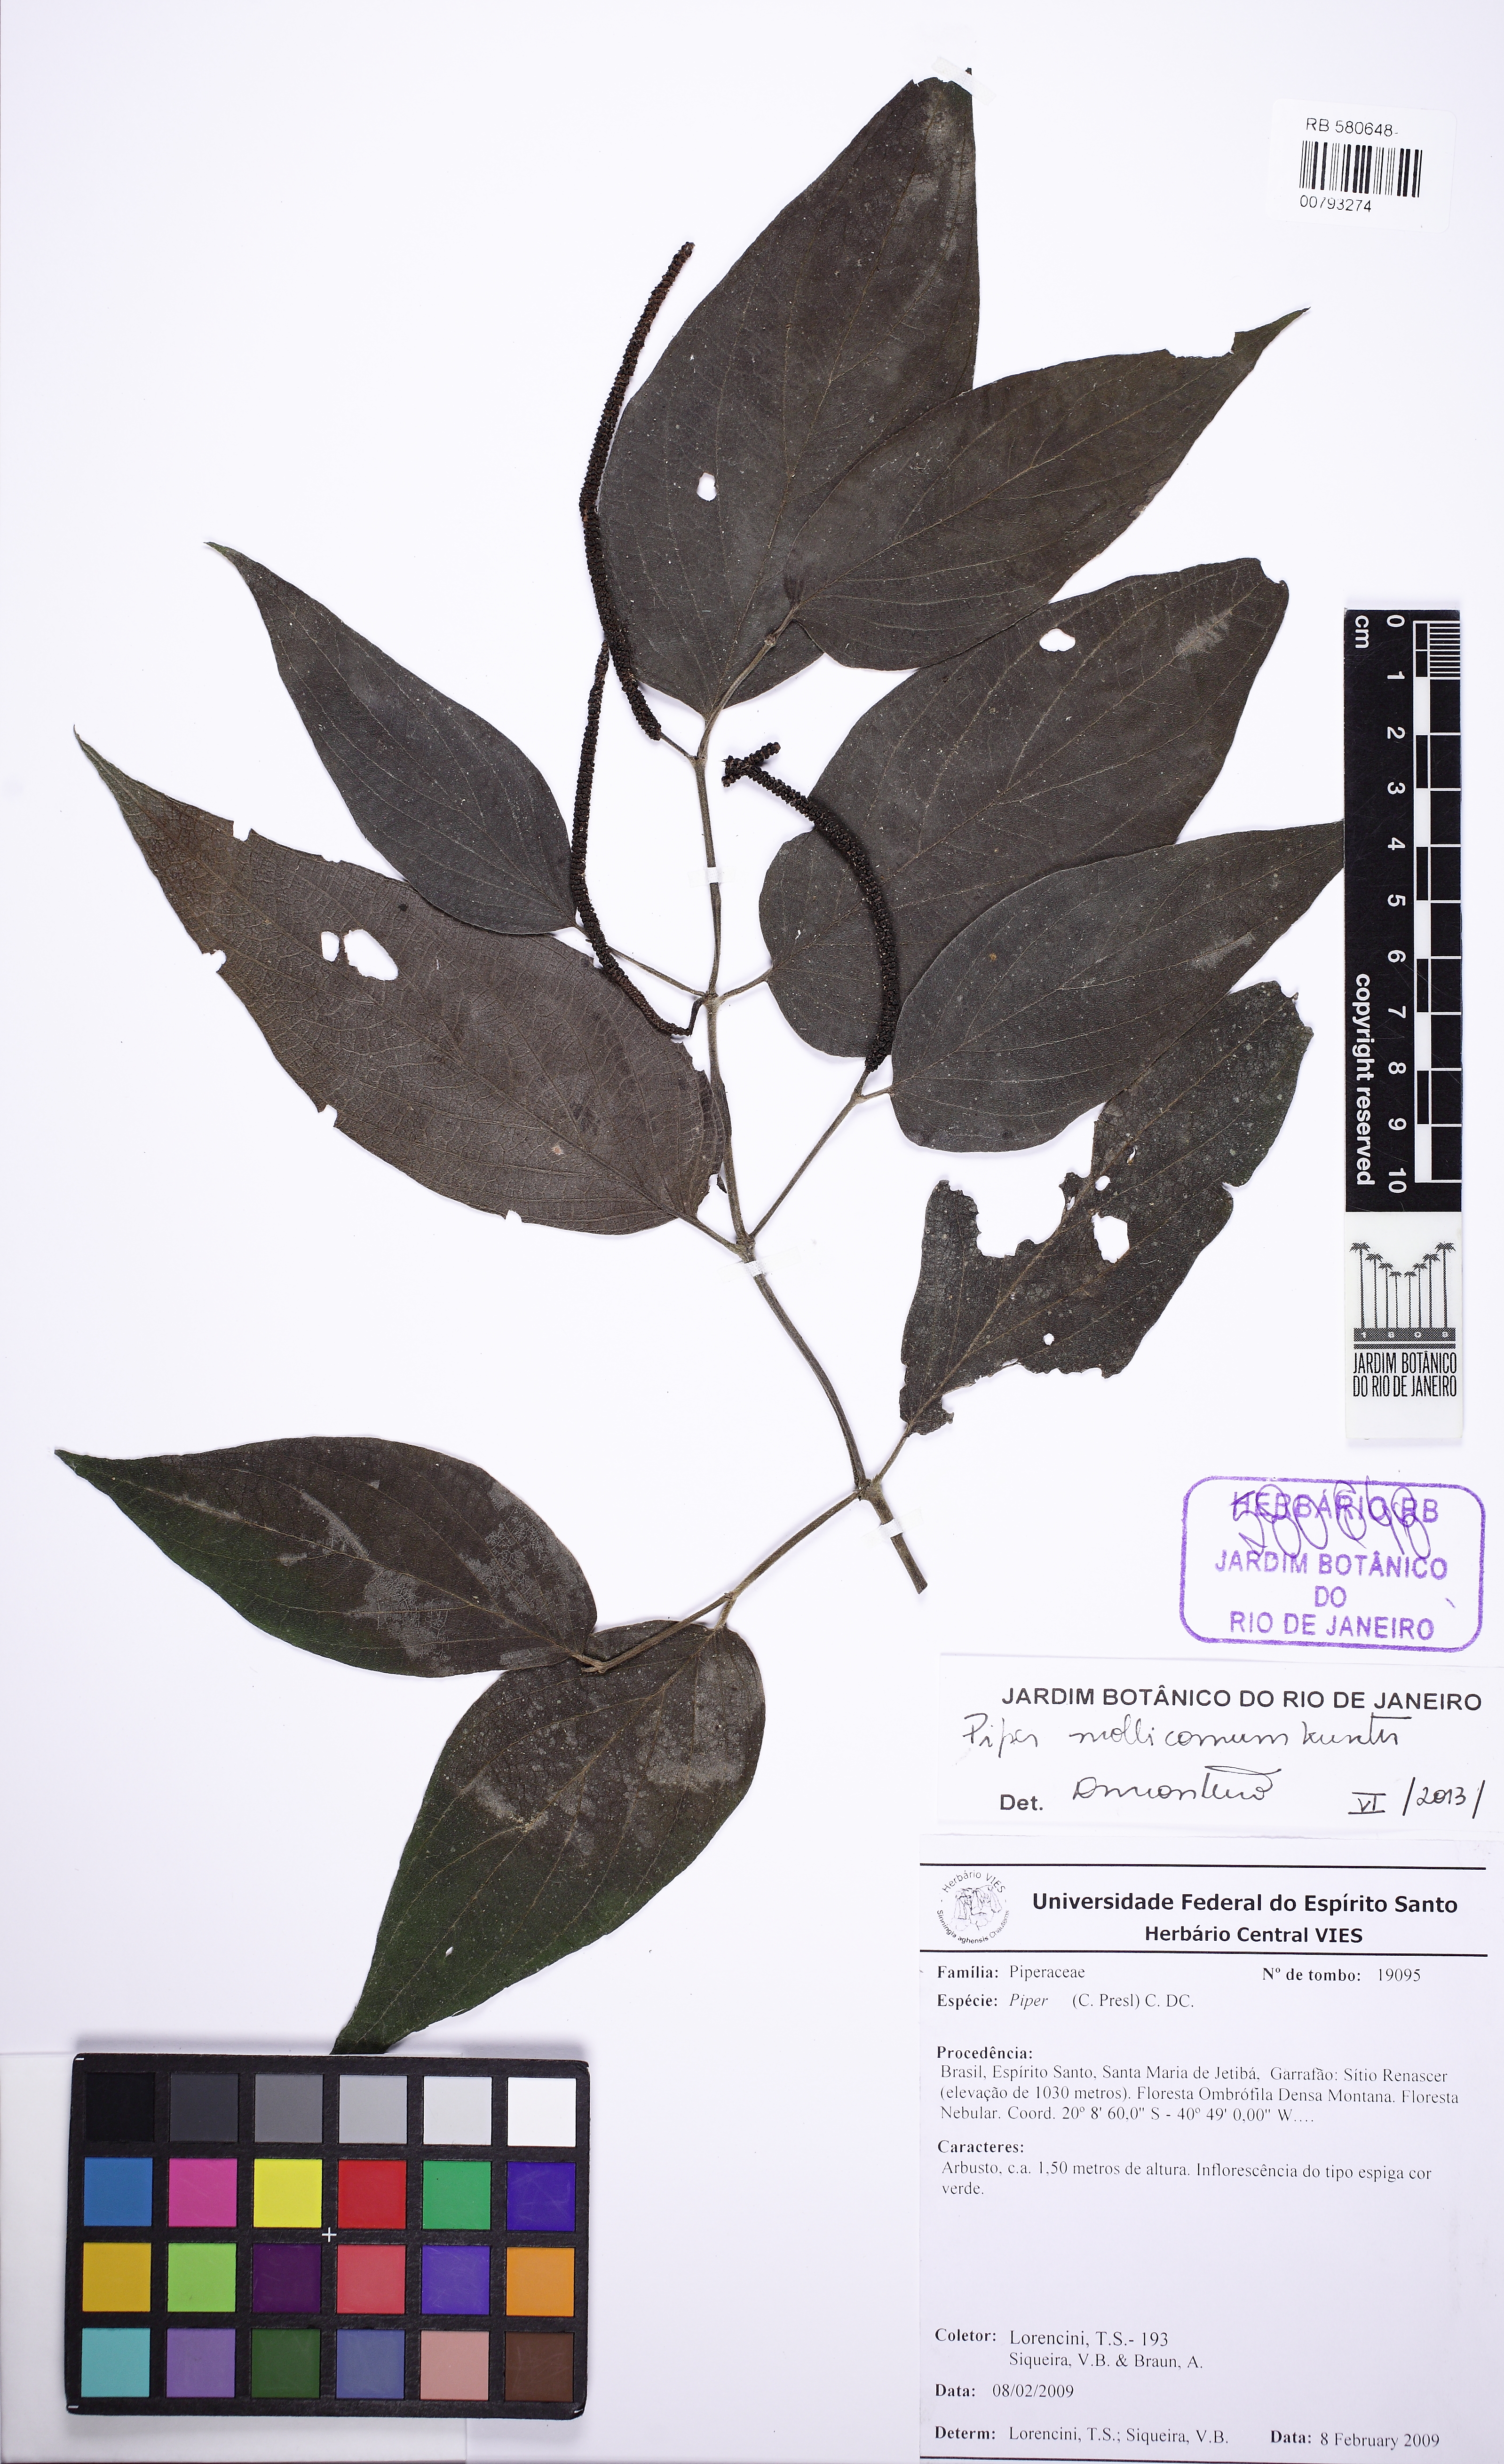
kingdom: Plantae
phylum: Tracheophyta
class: Magnoliopsida
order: Piperales
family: Piperaceae
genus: Piper
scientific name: Piper mollicomum
